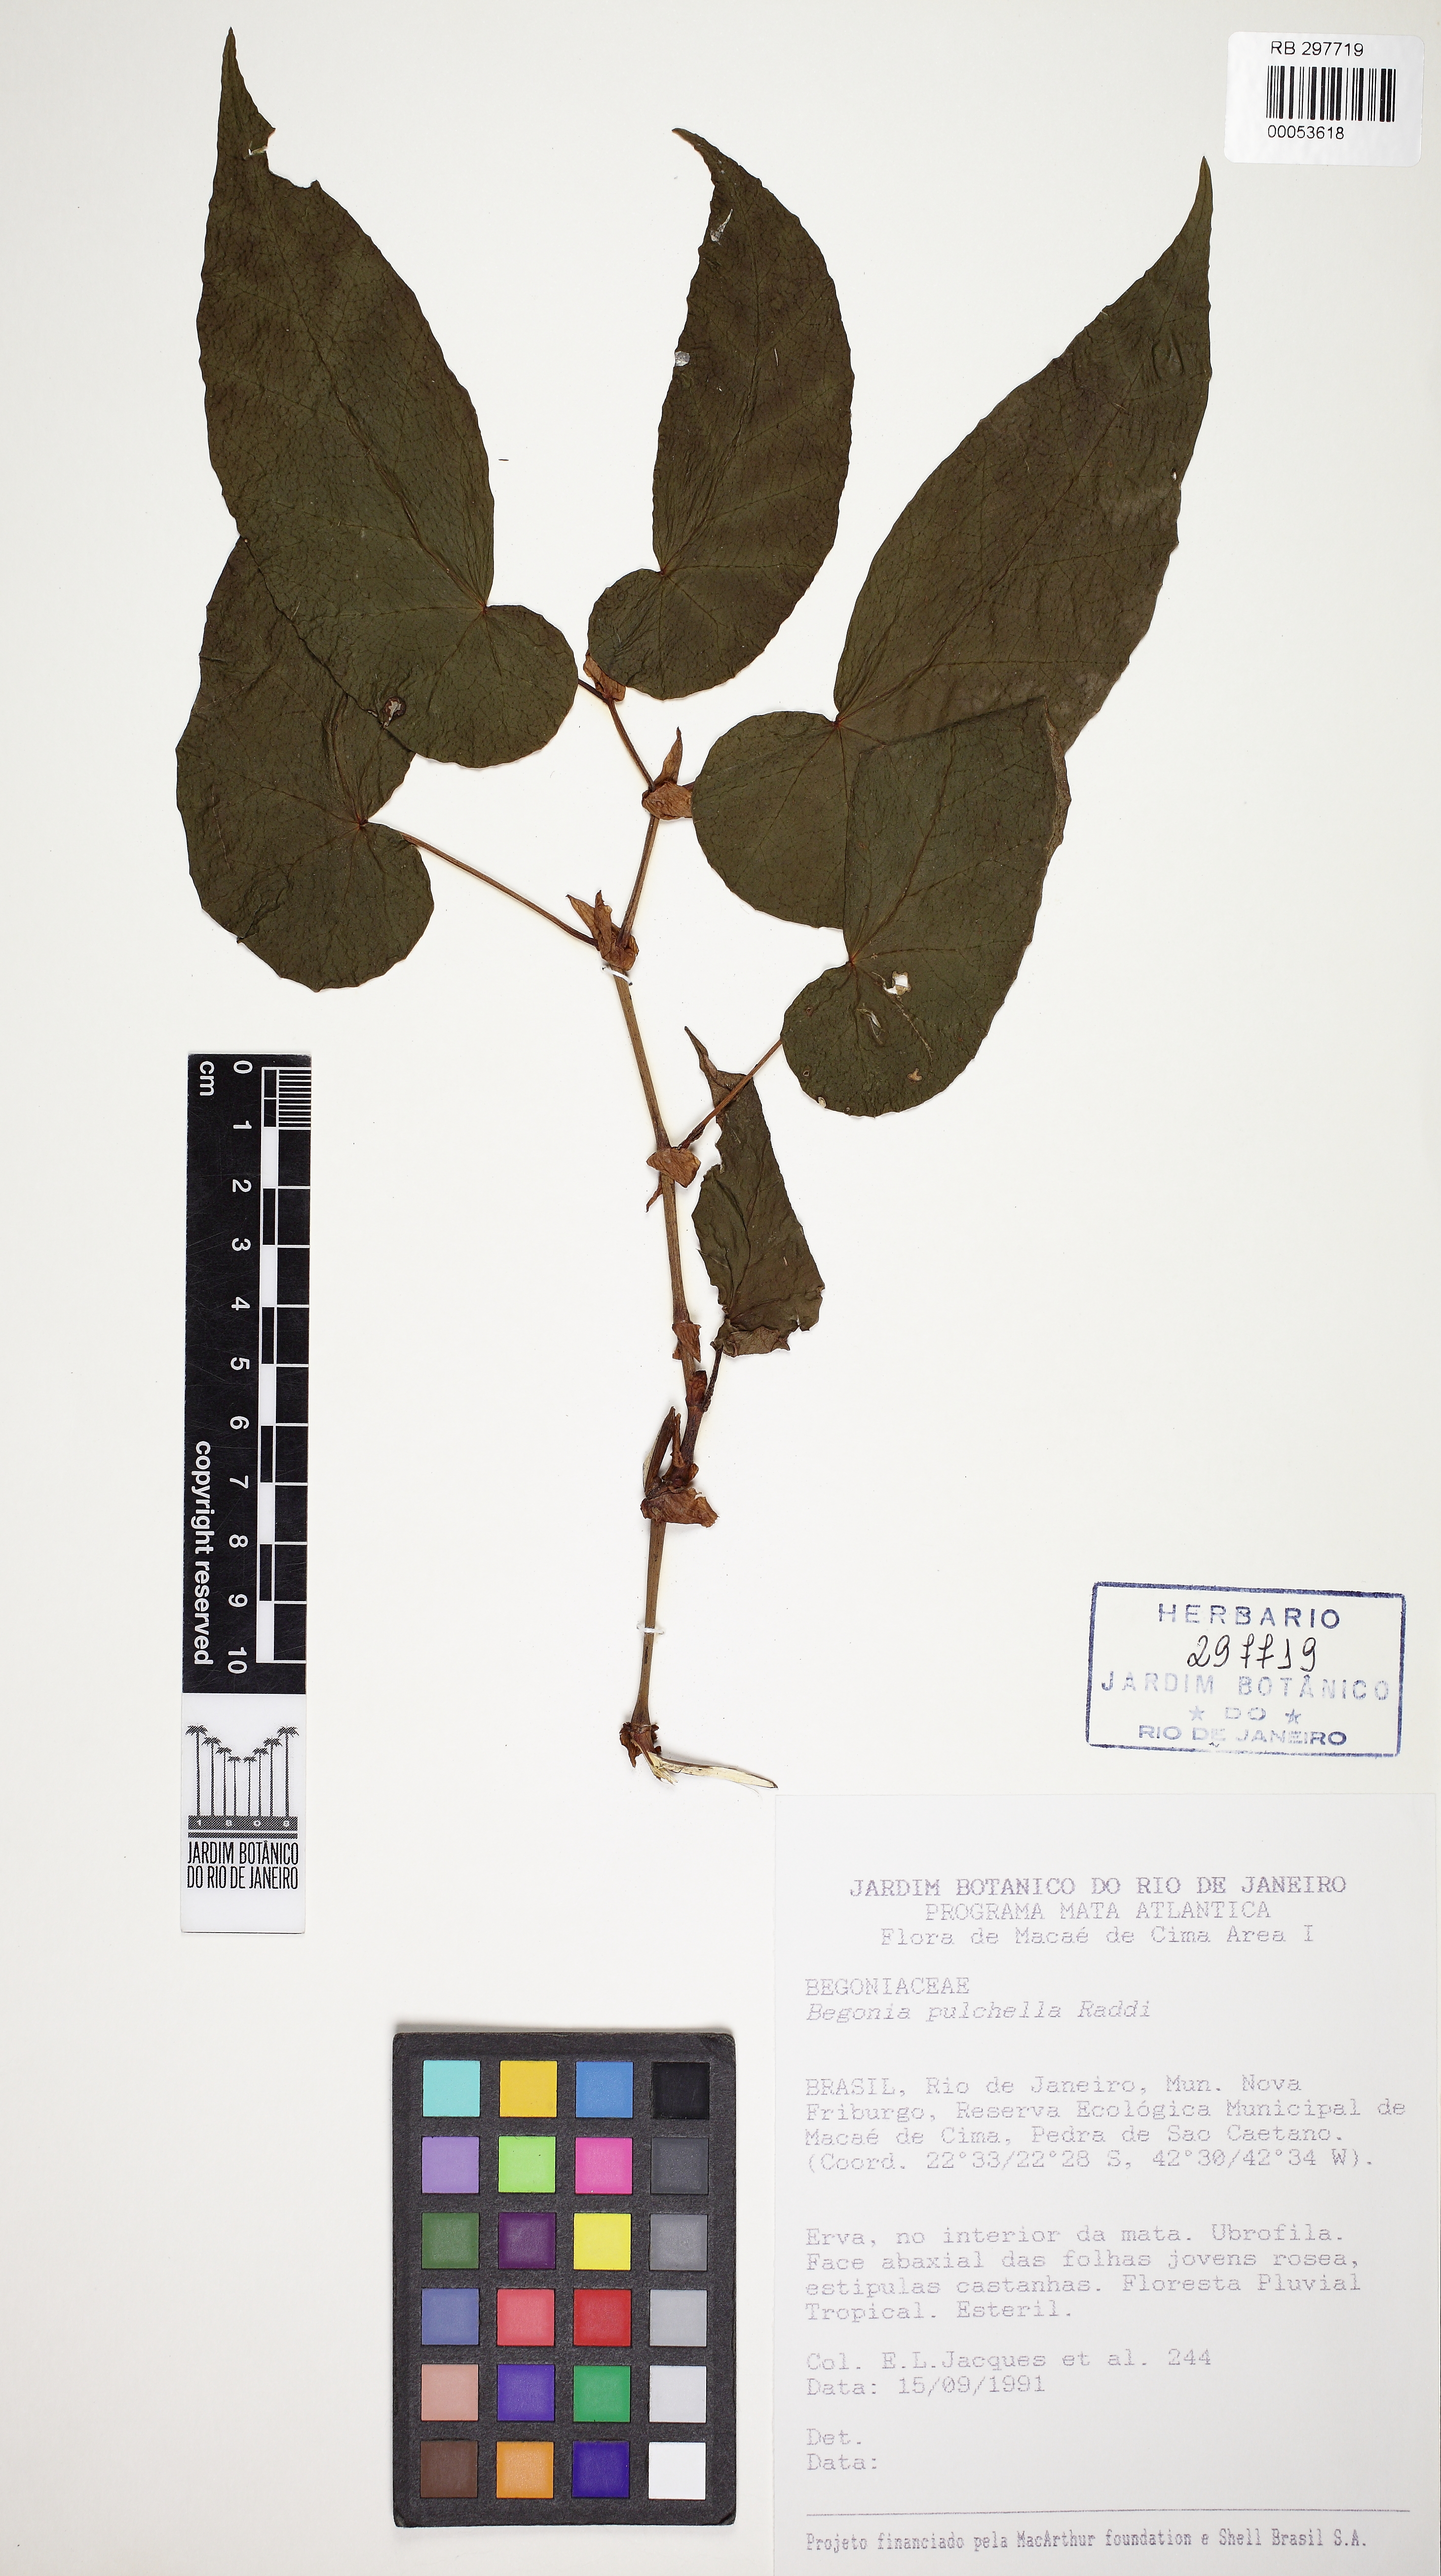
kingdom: Plantae
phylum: Tracheophyta
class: Magnoliopsida
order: Cucurbitales
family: Begoniaceae
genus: Begonia
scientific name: Begonia pulchella
